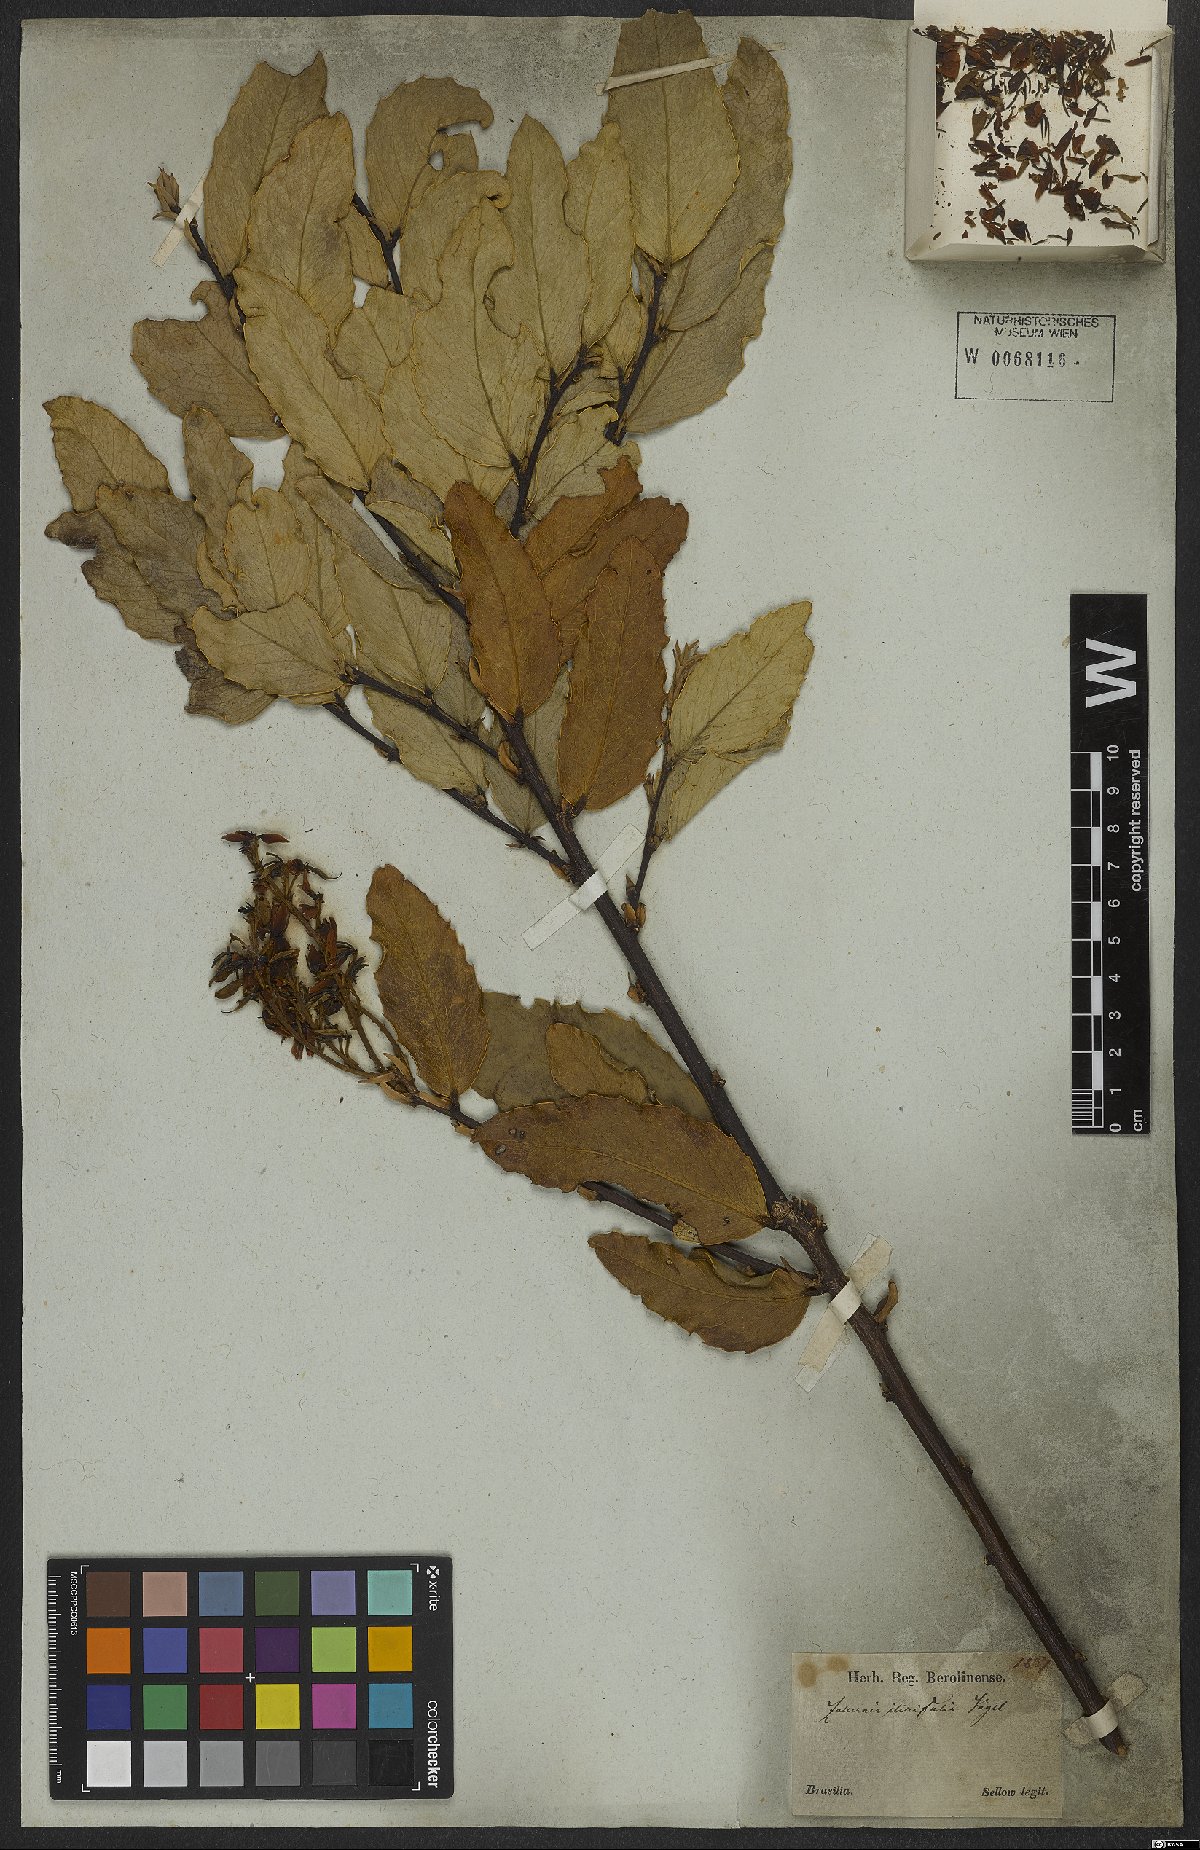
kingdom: Plantae
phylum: Tracheophyta
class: Magnoliopsida
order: Fabales
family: Fabaceae
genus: Zollernia
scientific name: Zollernia ilicifolia
